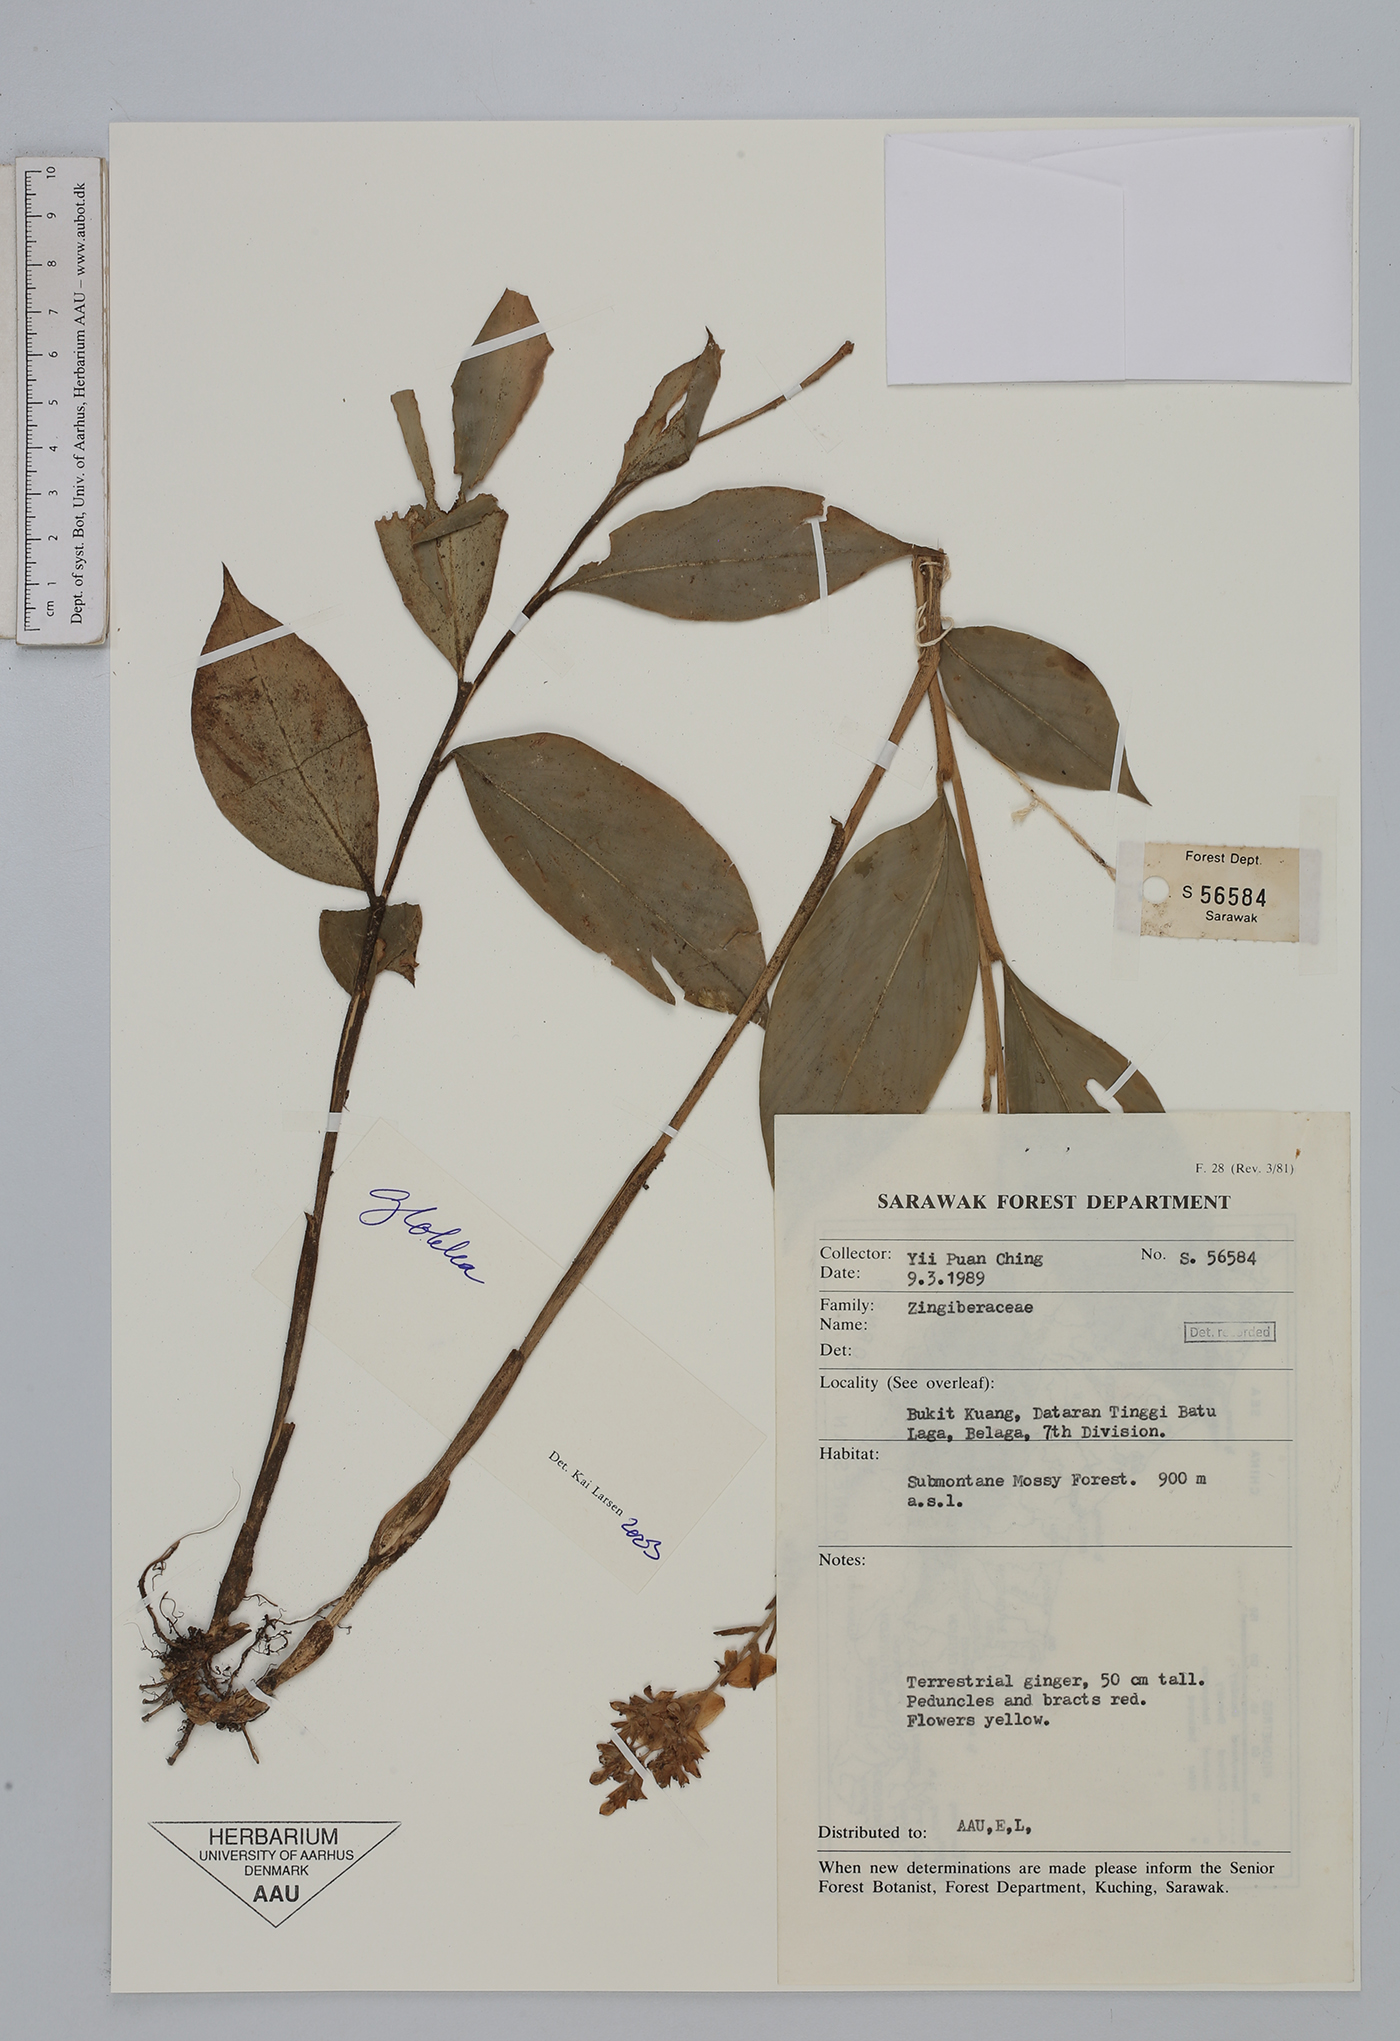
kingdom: Plantae
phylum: Tracheophyta
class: Liliopsida
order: Zingiberales
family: Zingiberaceae
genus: Globba
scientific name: Globba
